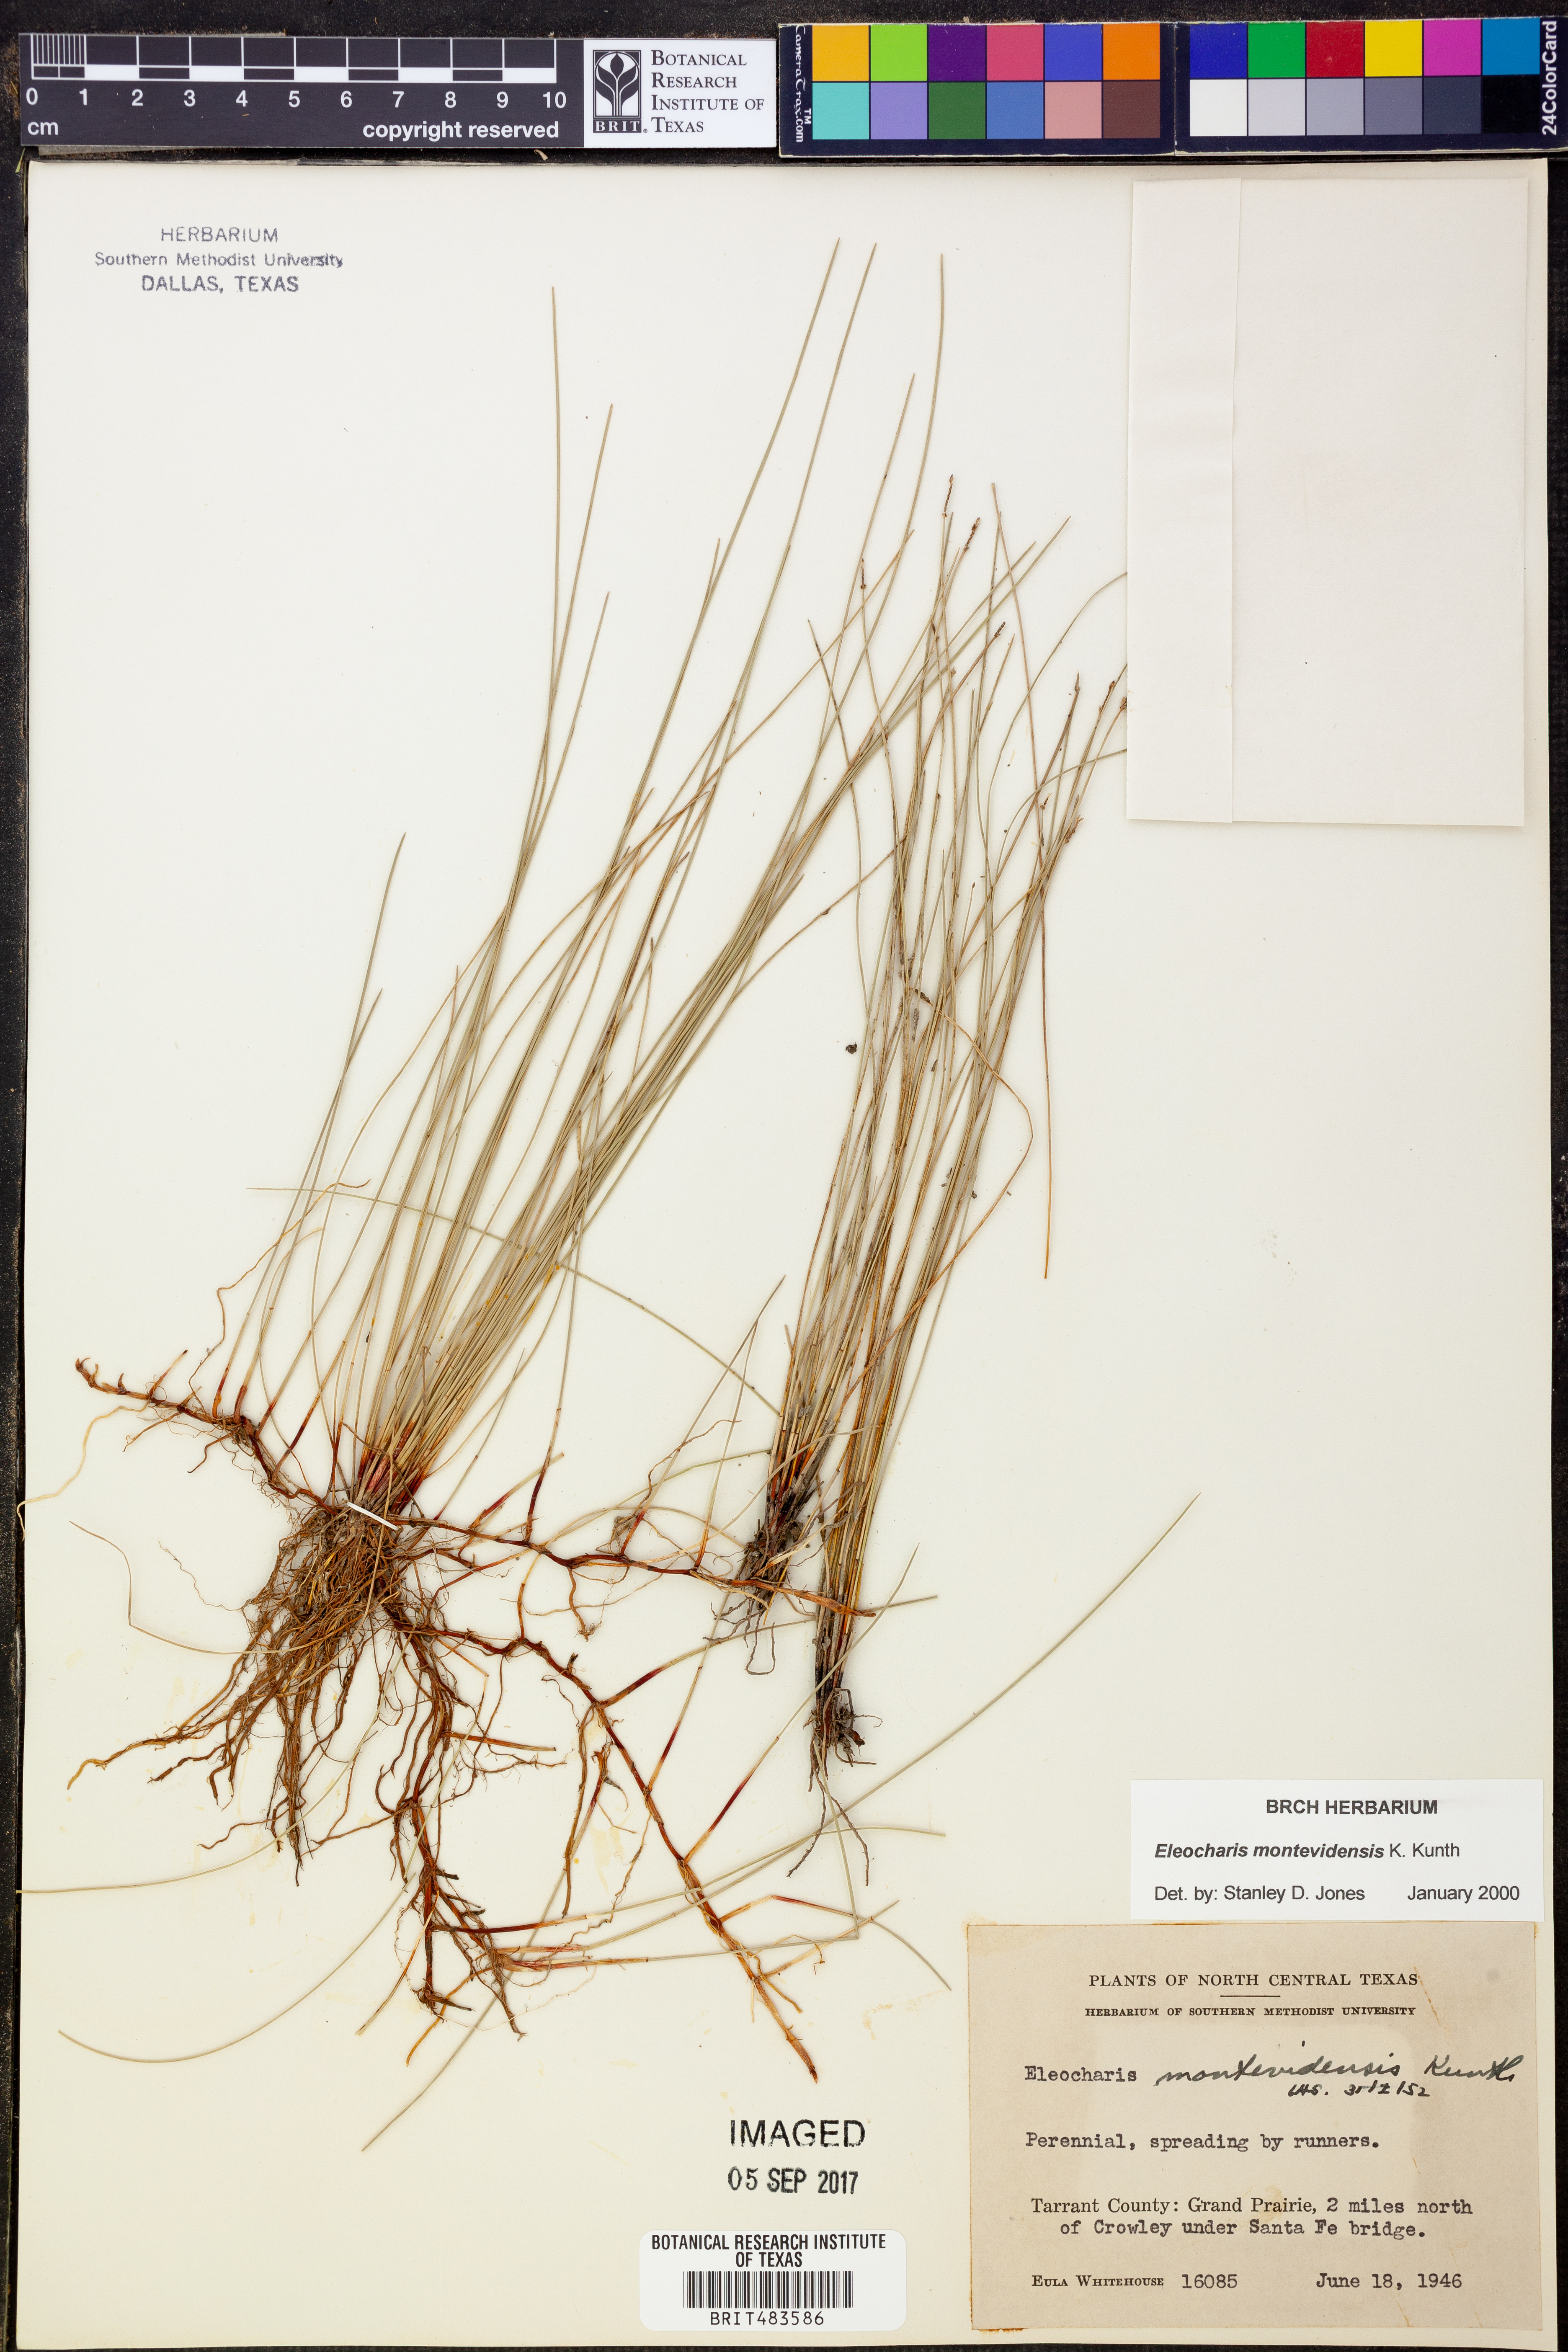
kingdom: Plantae
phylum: Tracheophyta
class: Liliopsida
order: Poales
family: Cyperaceae
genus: Eleocharis
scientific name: Eleocharis montevidensis
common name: Sand spike-rush
